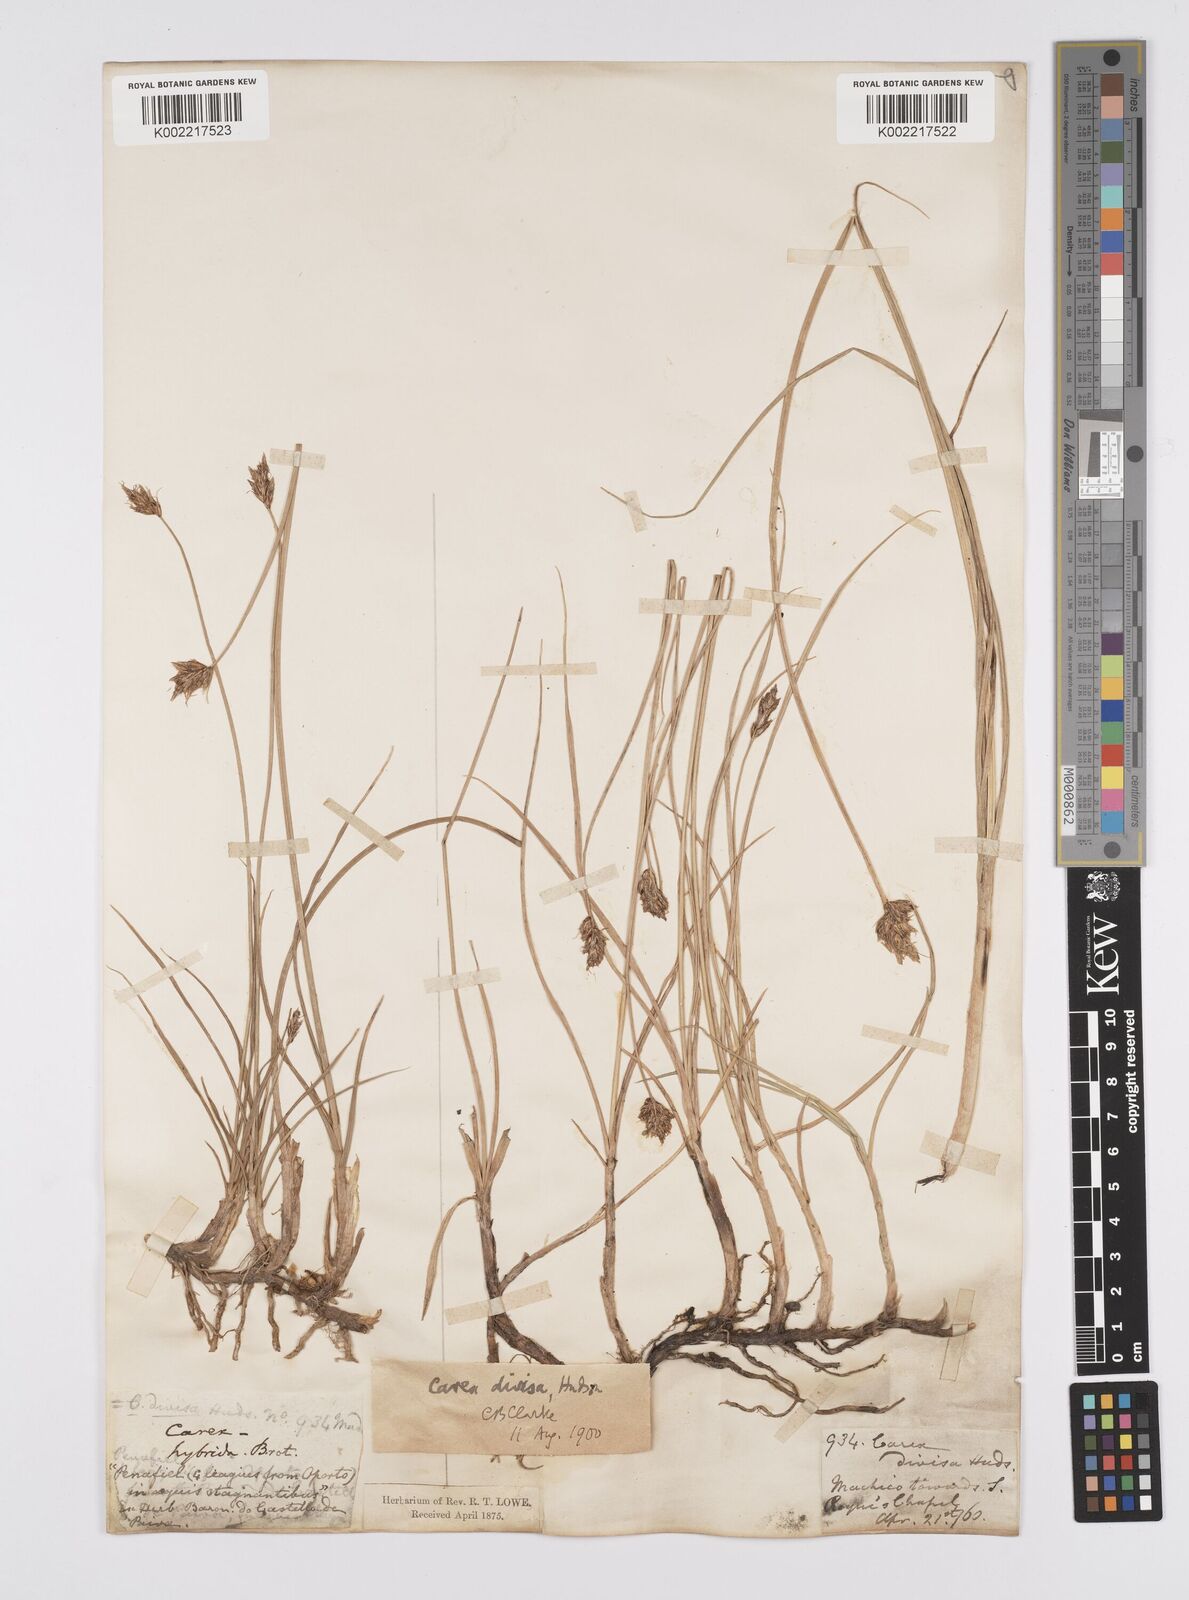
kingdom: Plantae
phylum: Tracheophyta
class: Liliopsida
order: Poales
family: Cyperaceae
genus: Carex
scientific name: Carex divisa
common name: Divided sedge
